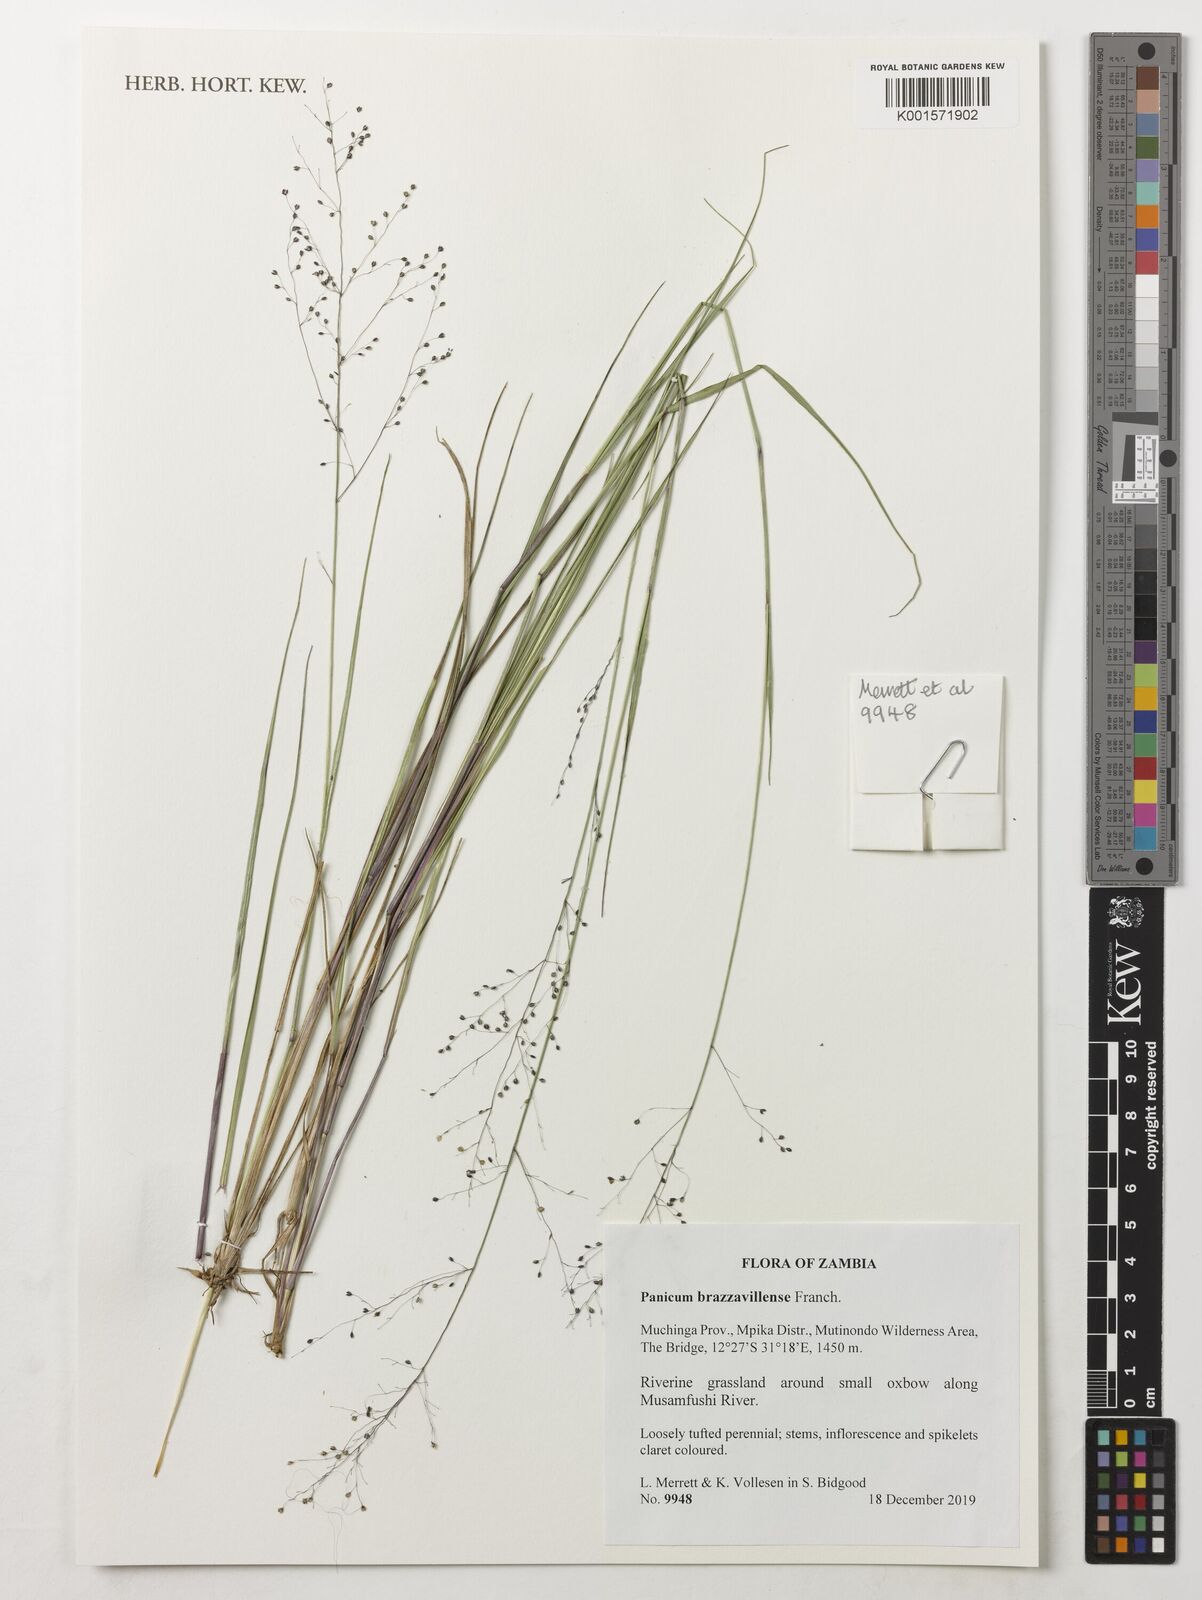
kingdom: Plantae
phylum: Tracheophyta
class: Liliopsida
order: Poales
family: Poaceae
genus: Trichanthecium
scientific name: Trichanthecium brazzavillense
